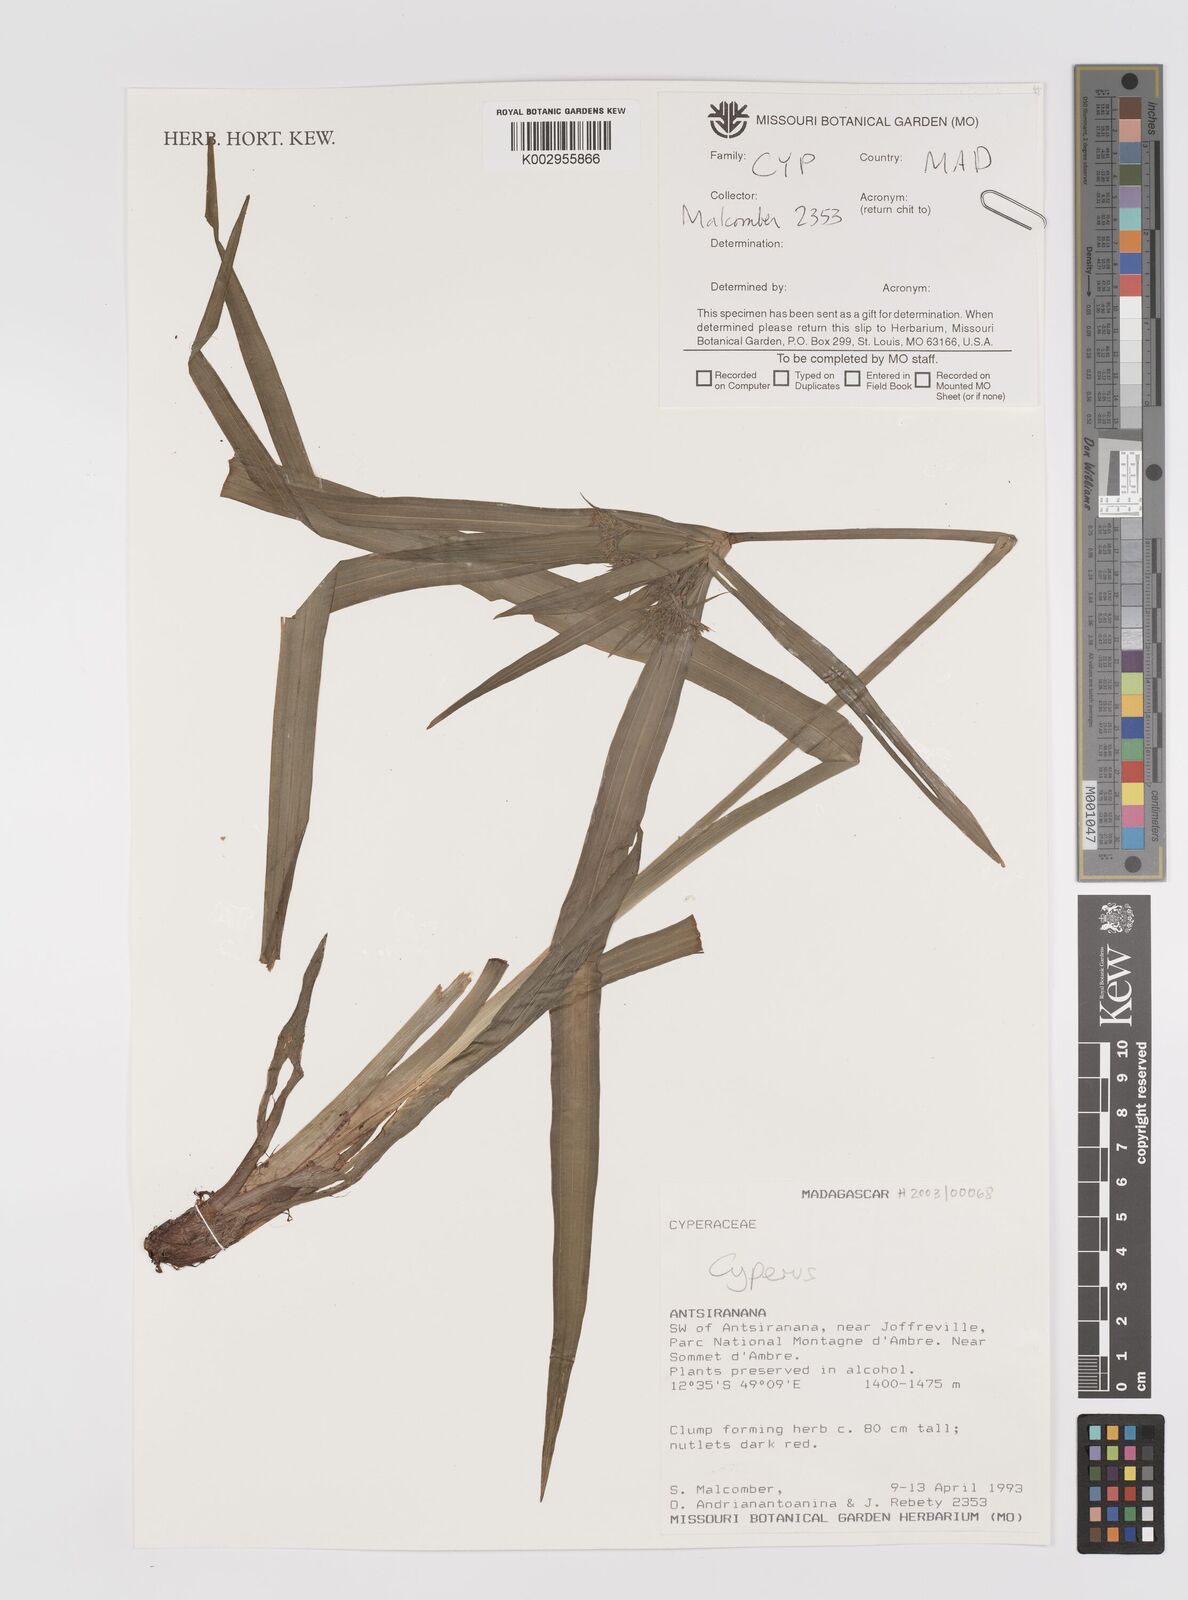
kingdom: Plantae
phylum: Tracheophyta
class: Liliopsida
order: Poales
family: Cyperaceae
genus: Cyperus
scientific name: Cyperus
